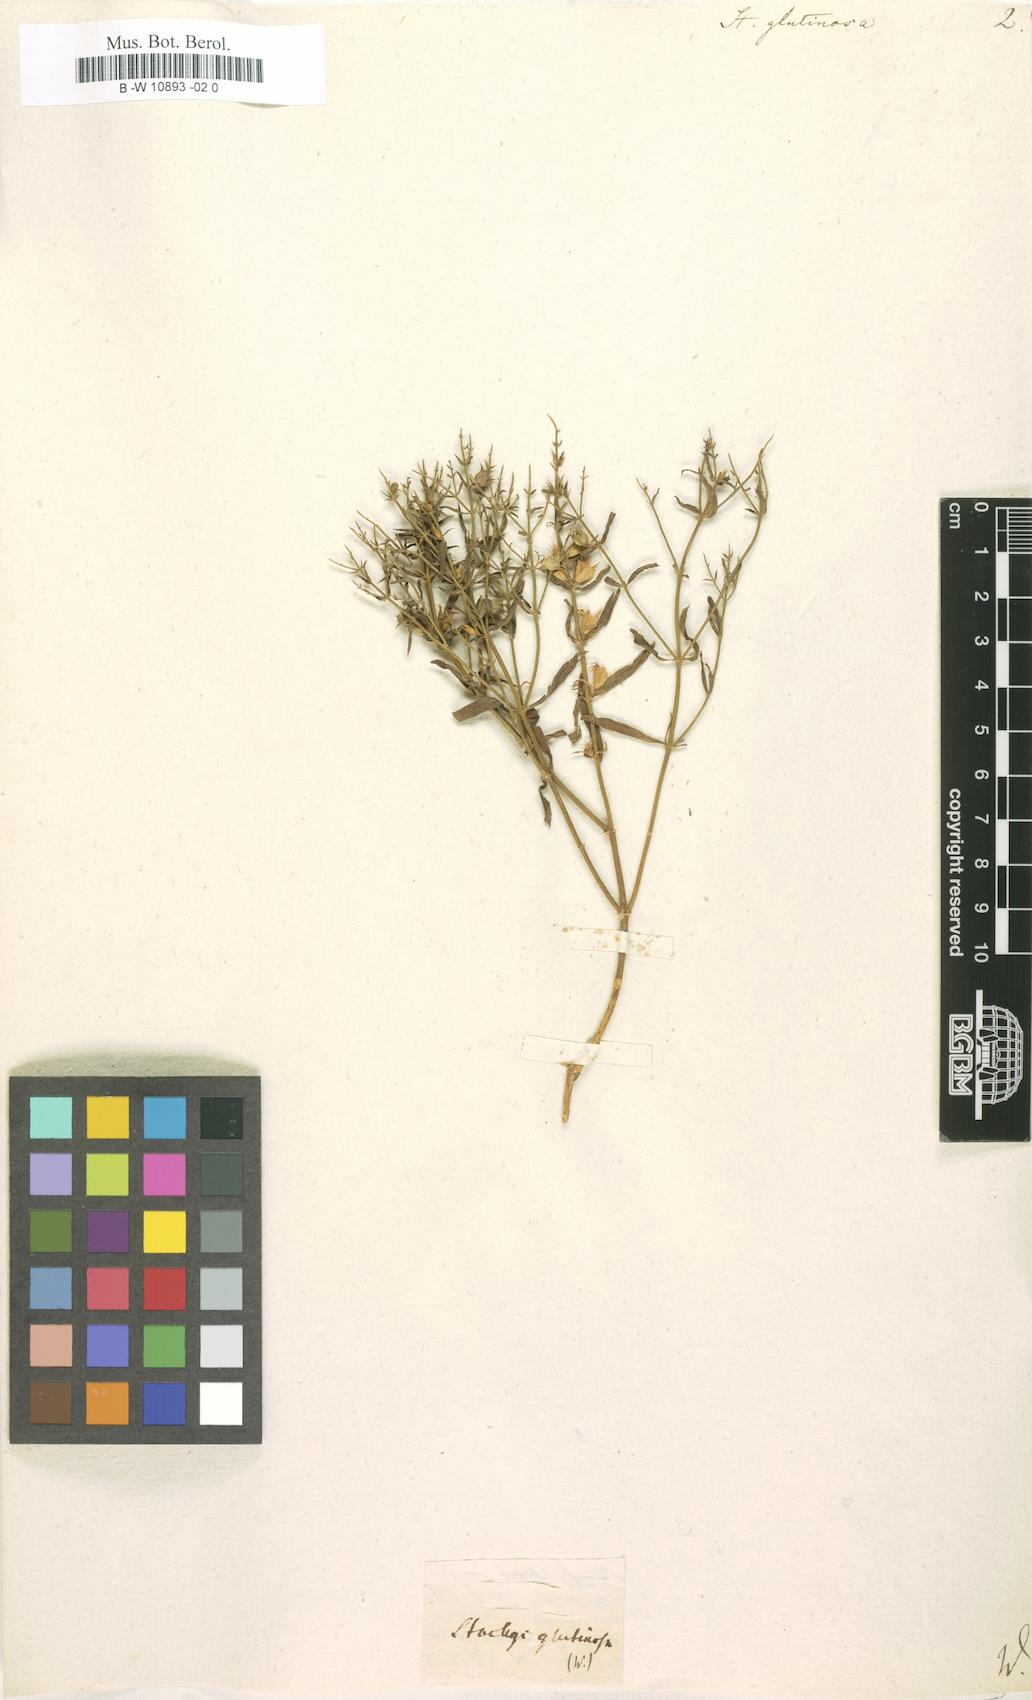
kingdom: Plantae
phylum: Tracheophyta
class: Magnoliopsida
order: Lamiales
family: Lamiaceae
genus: Stachys
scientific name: Stachys glutinosa
